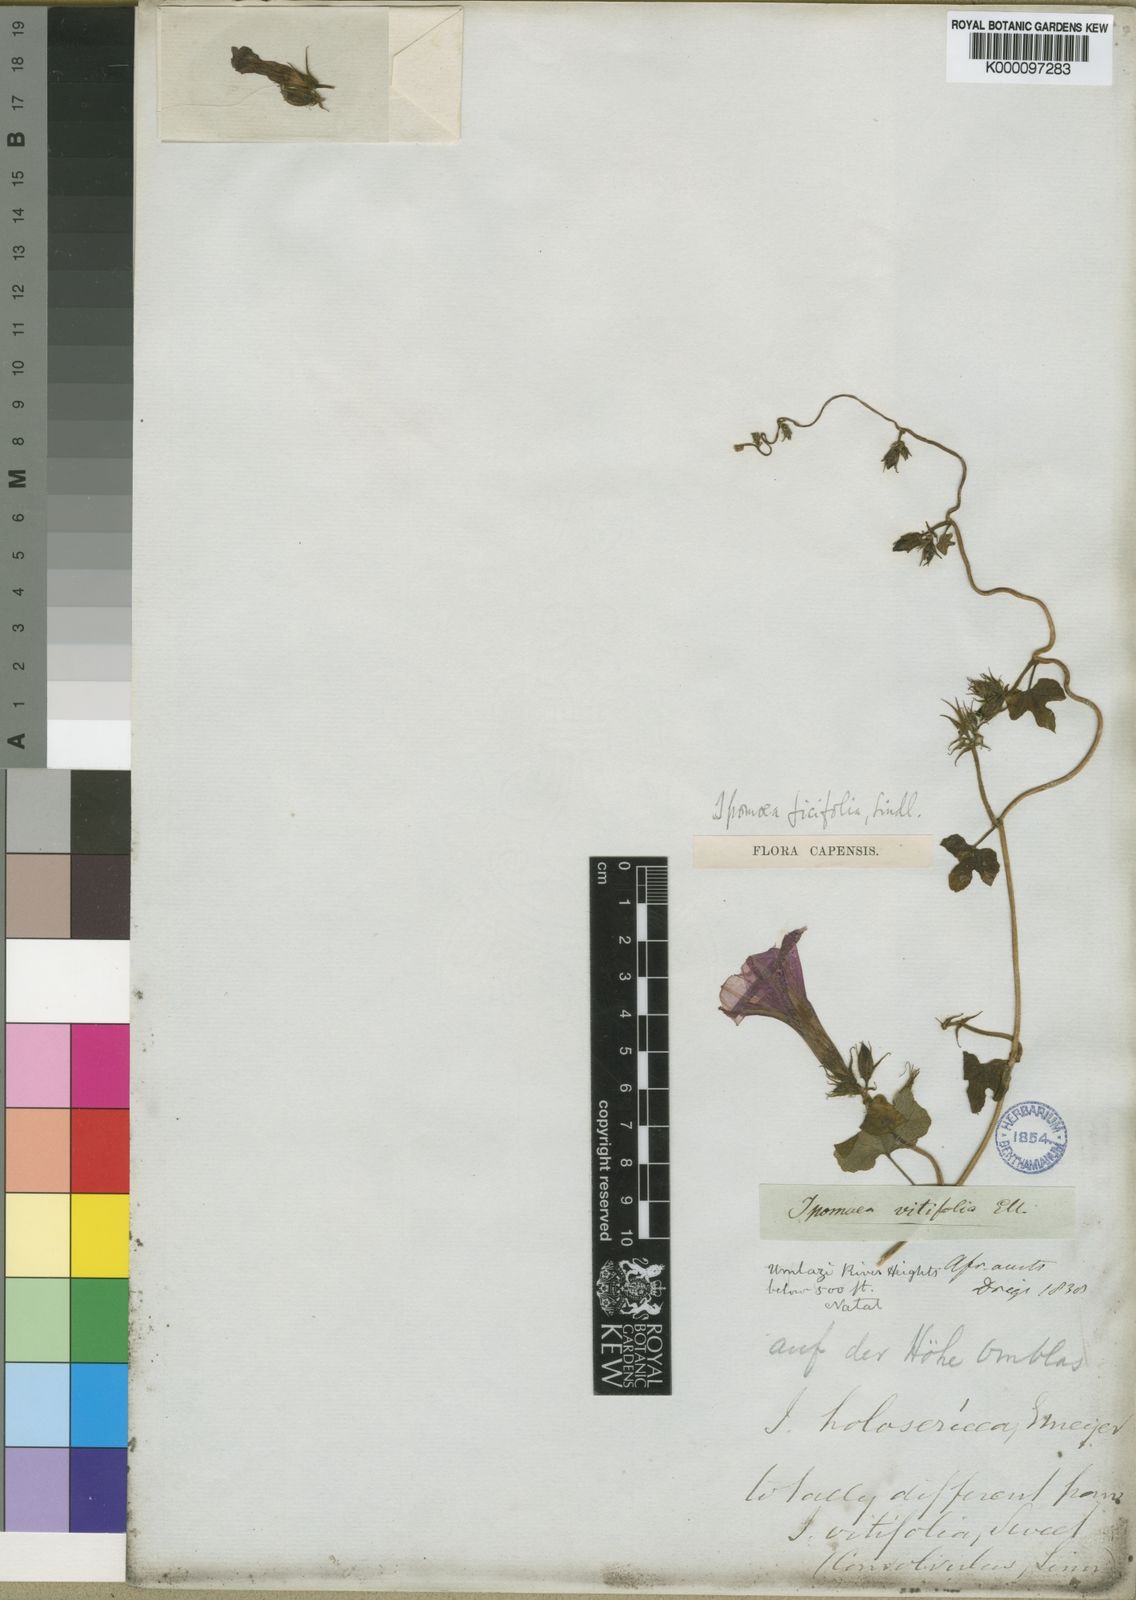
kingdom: Plantae
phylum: Tracheophyta
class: Magnoliopsida
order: Solanales
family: Convolvulaceae
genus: Ipomoea
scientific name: Ipomoea ficifolia
